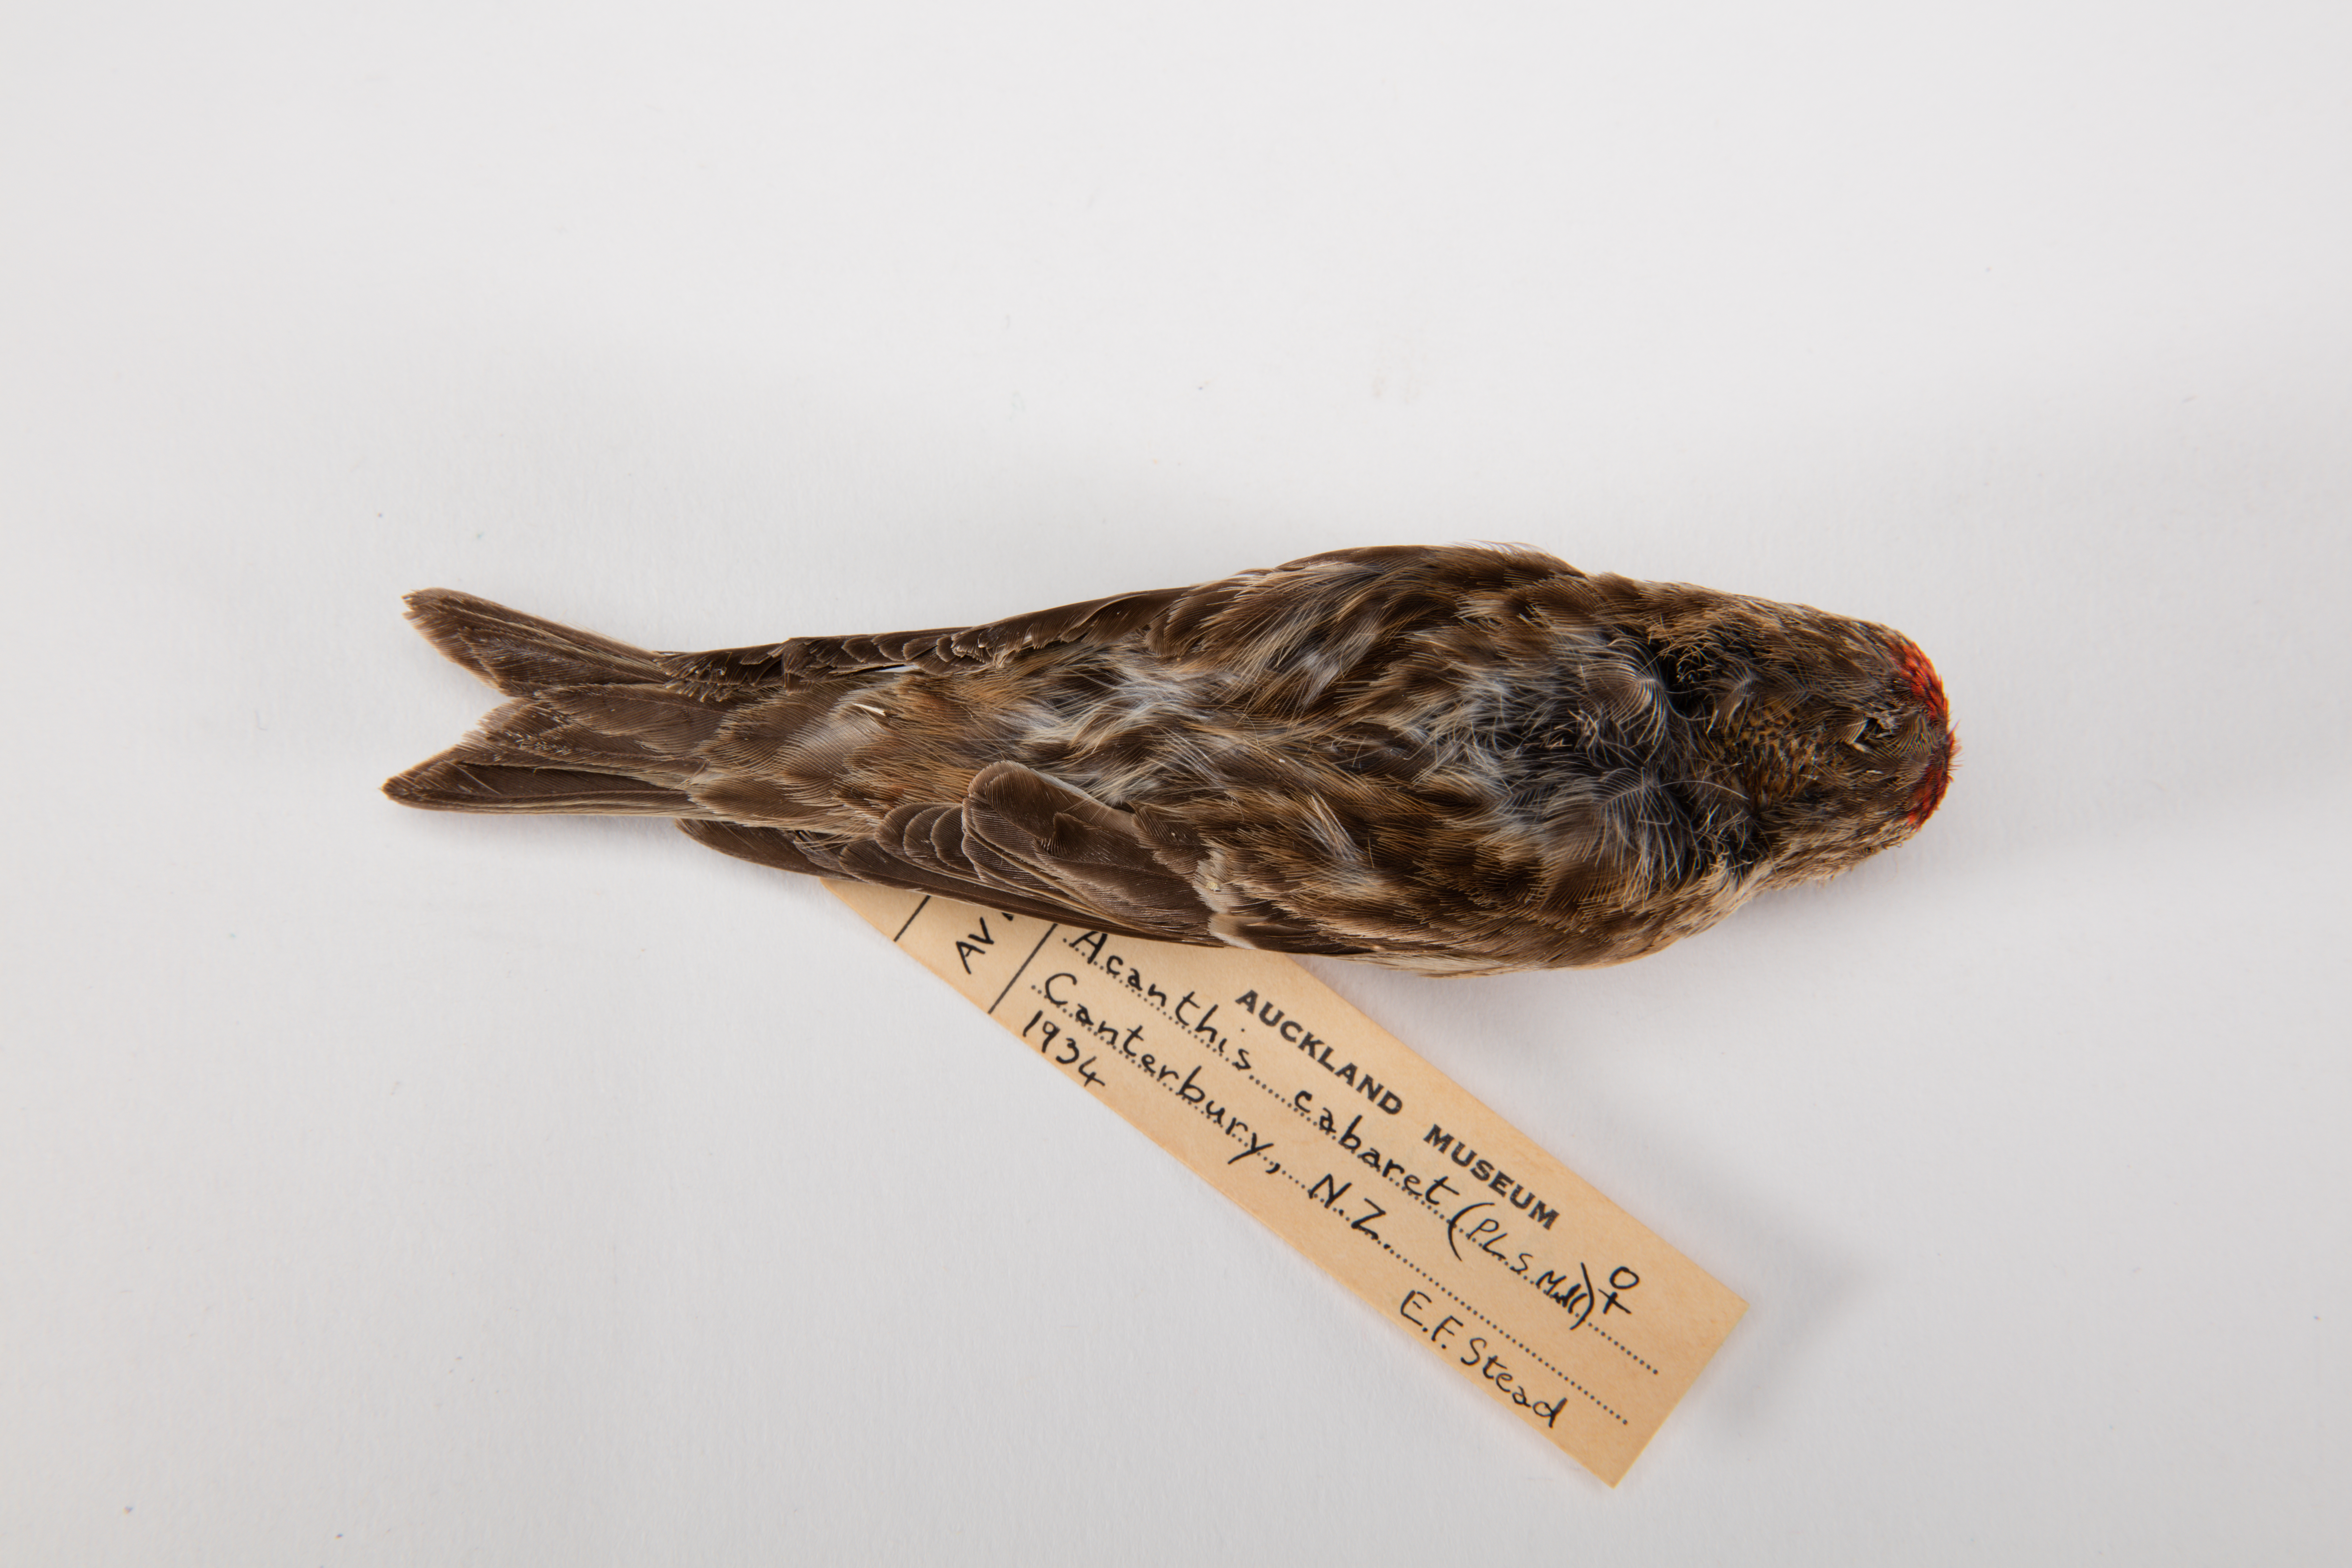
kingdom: Animalia
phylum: Chordata
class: Aves
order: Passeriformes
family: Fringillidae
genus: Acanthis
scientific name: Acanthis flammea
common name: Common redpoll
